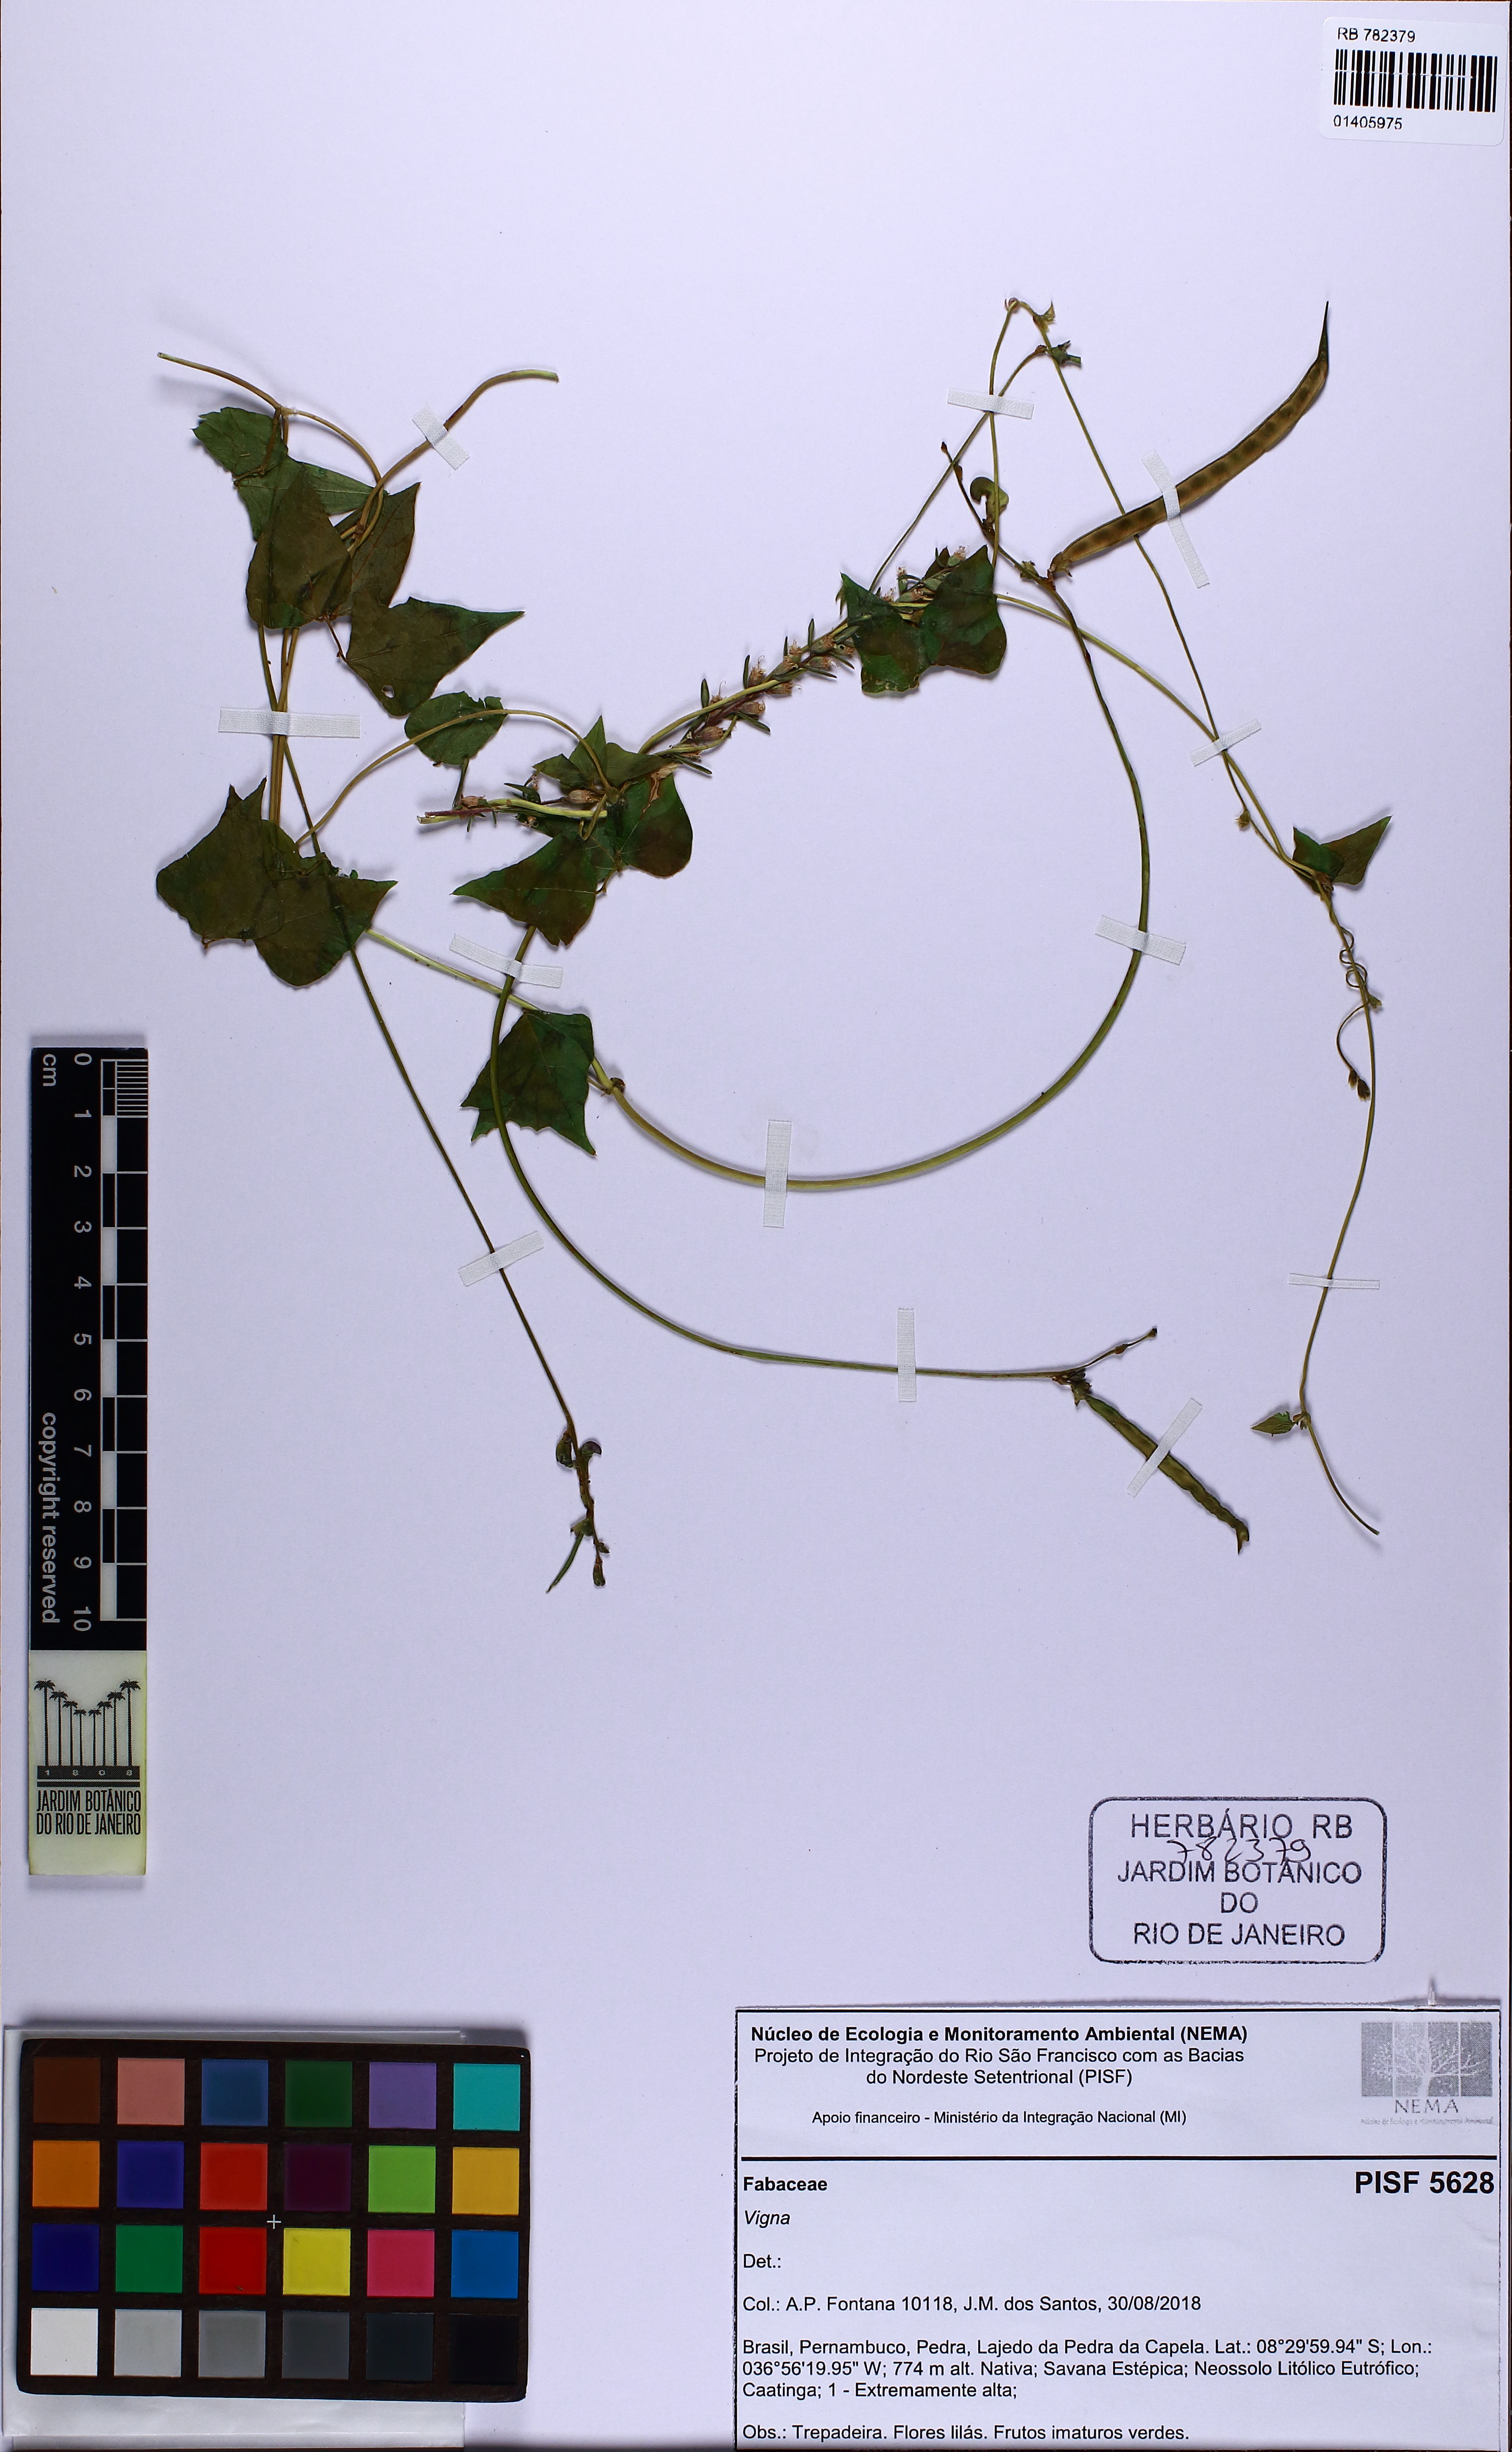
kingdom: Plantae
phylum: Tracheophyta
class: Magnoliopsida
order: Fabales
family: Fabaceae
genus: Vigna
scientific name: Vigna
